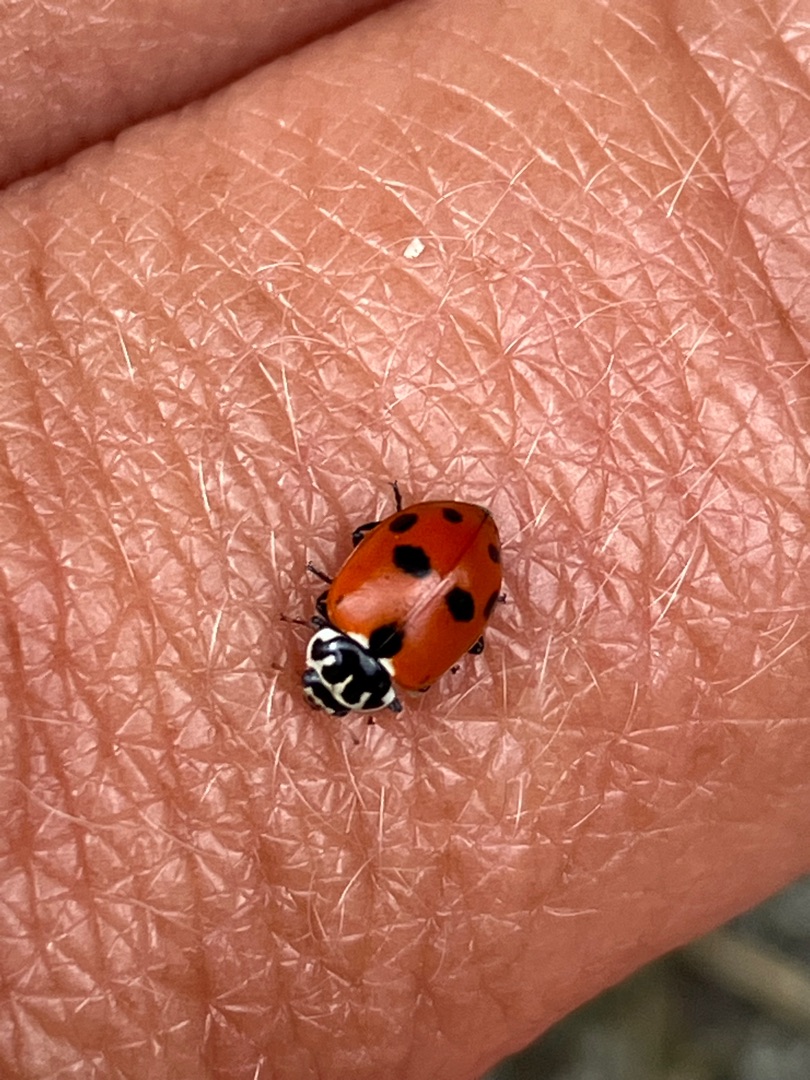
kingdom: Animalia
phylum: Arthropoda
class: Insecta
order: Coleoptera
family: Coccinellidae
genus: Hippodamia
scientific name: Hippodamia variegata
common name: Adonis' mariehøne
